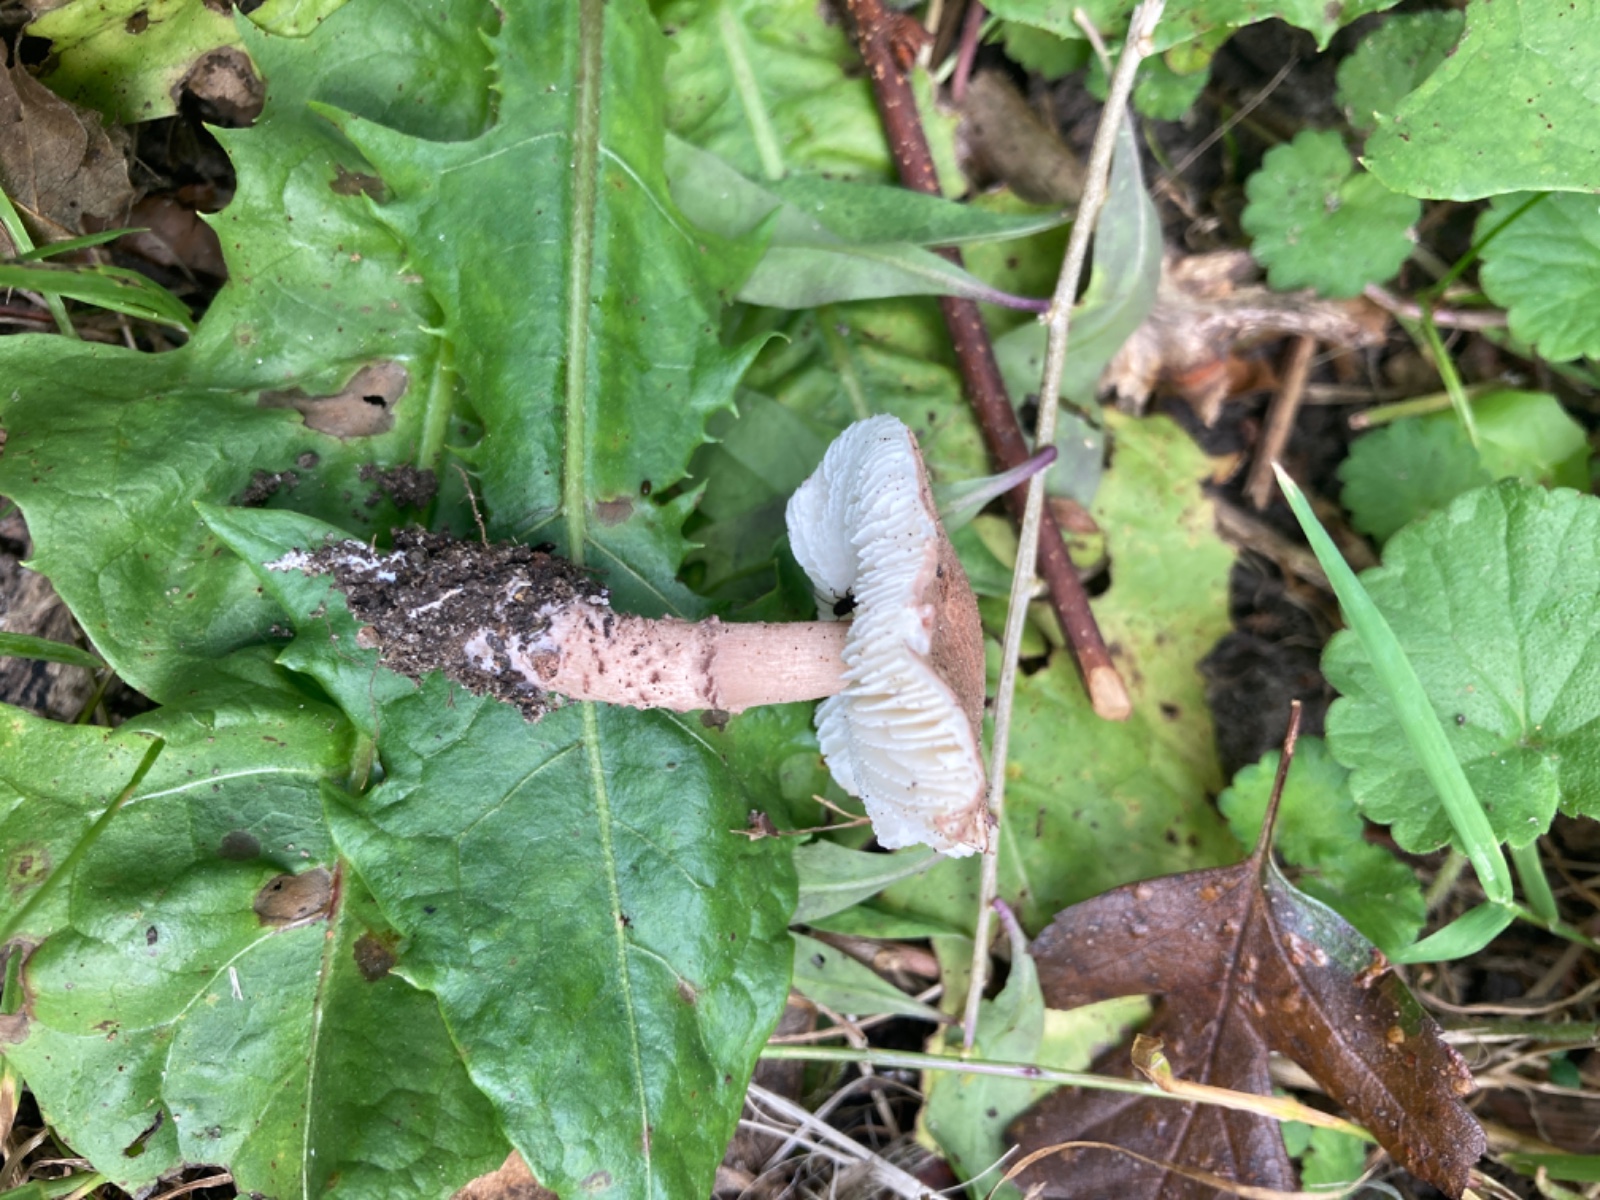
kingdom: Fungi
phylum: Basidiomycota
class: Agaricomycetes
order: Agaricales
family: Agaricaceae
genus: Lepiota
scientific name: Lepiota brunneoincarnata
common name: brunrød parasolhat
